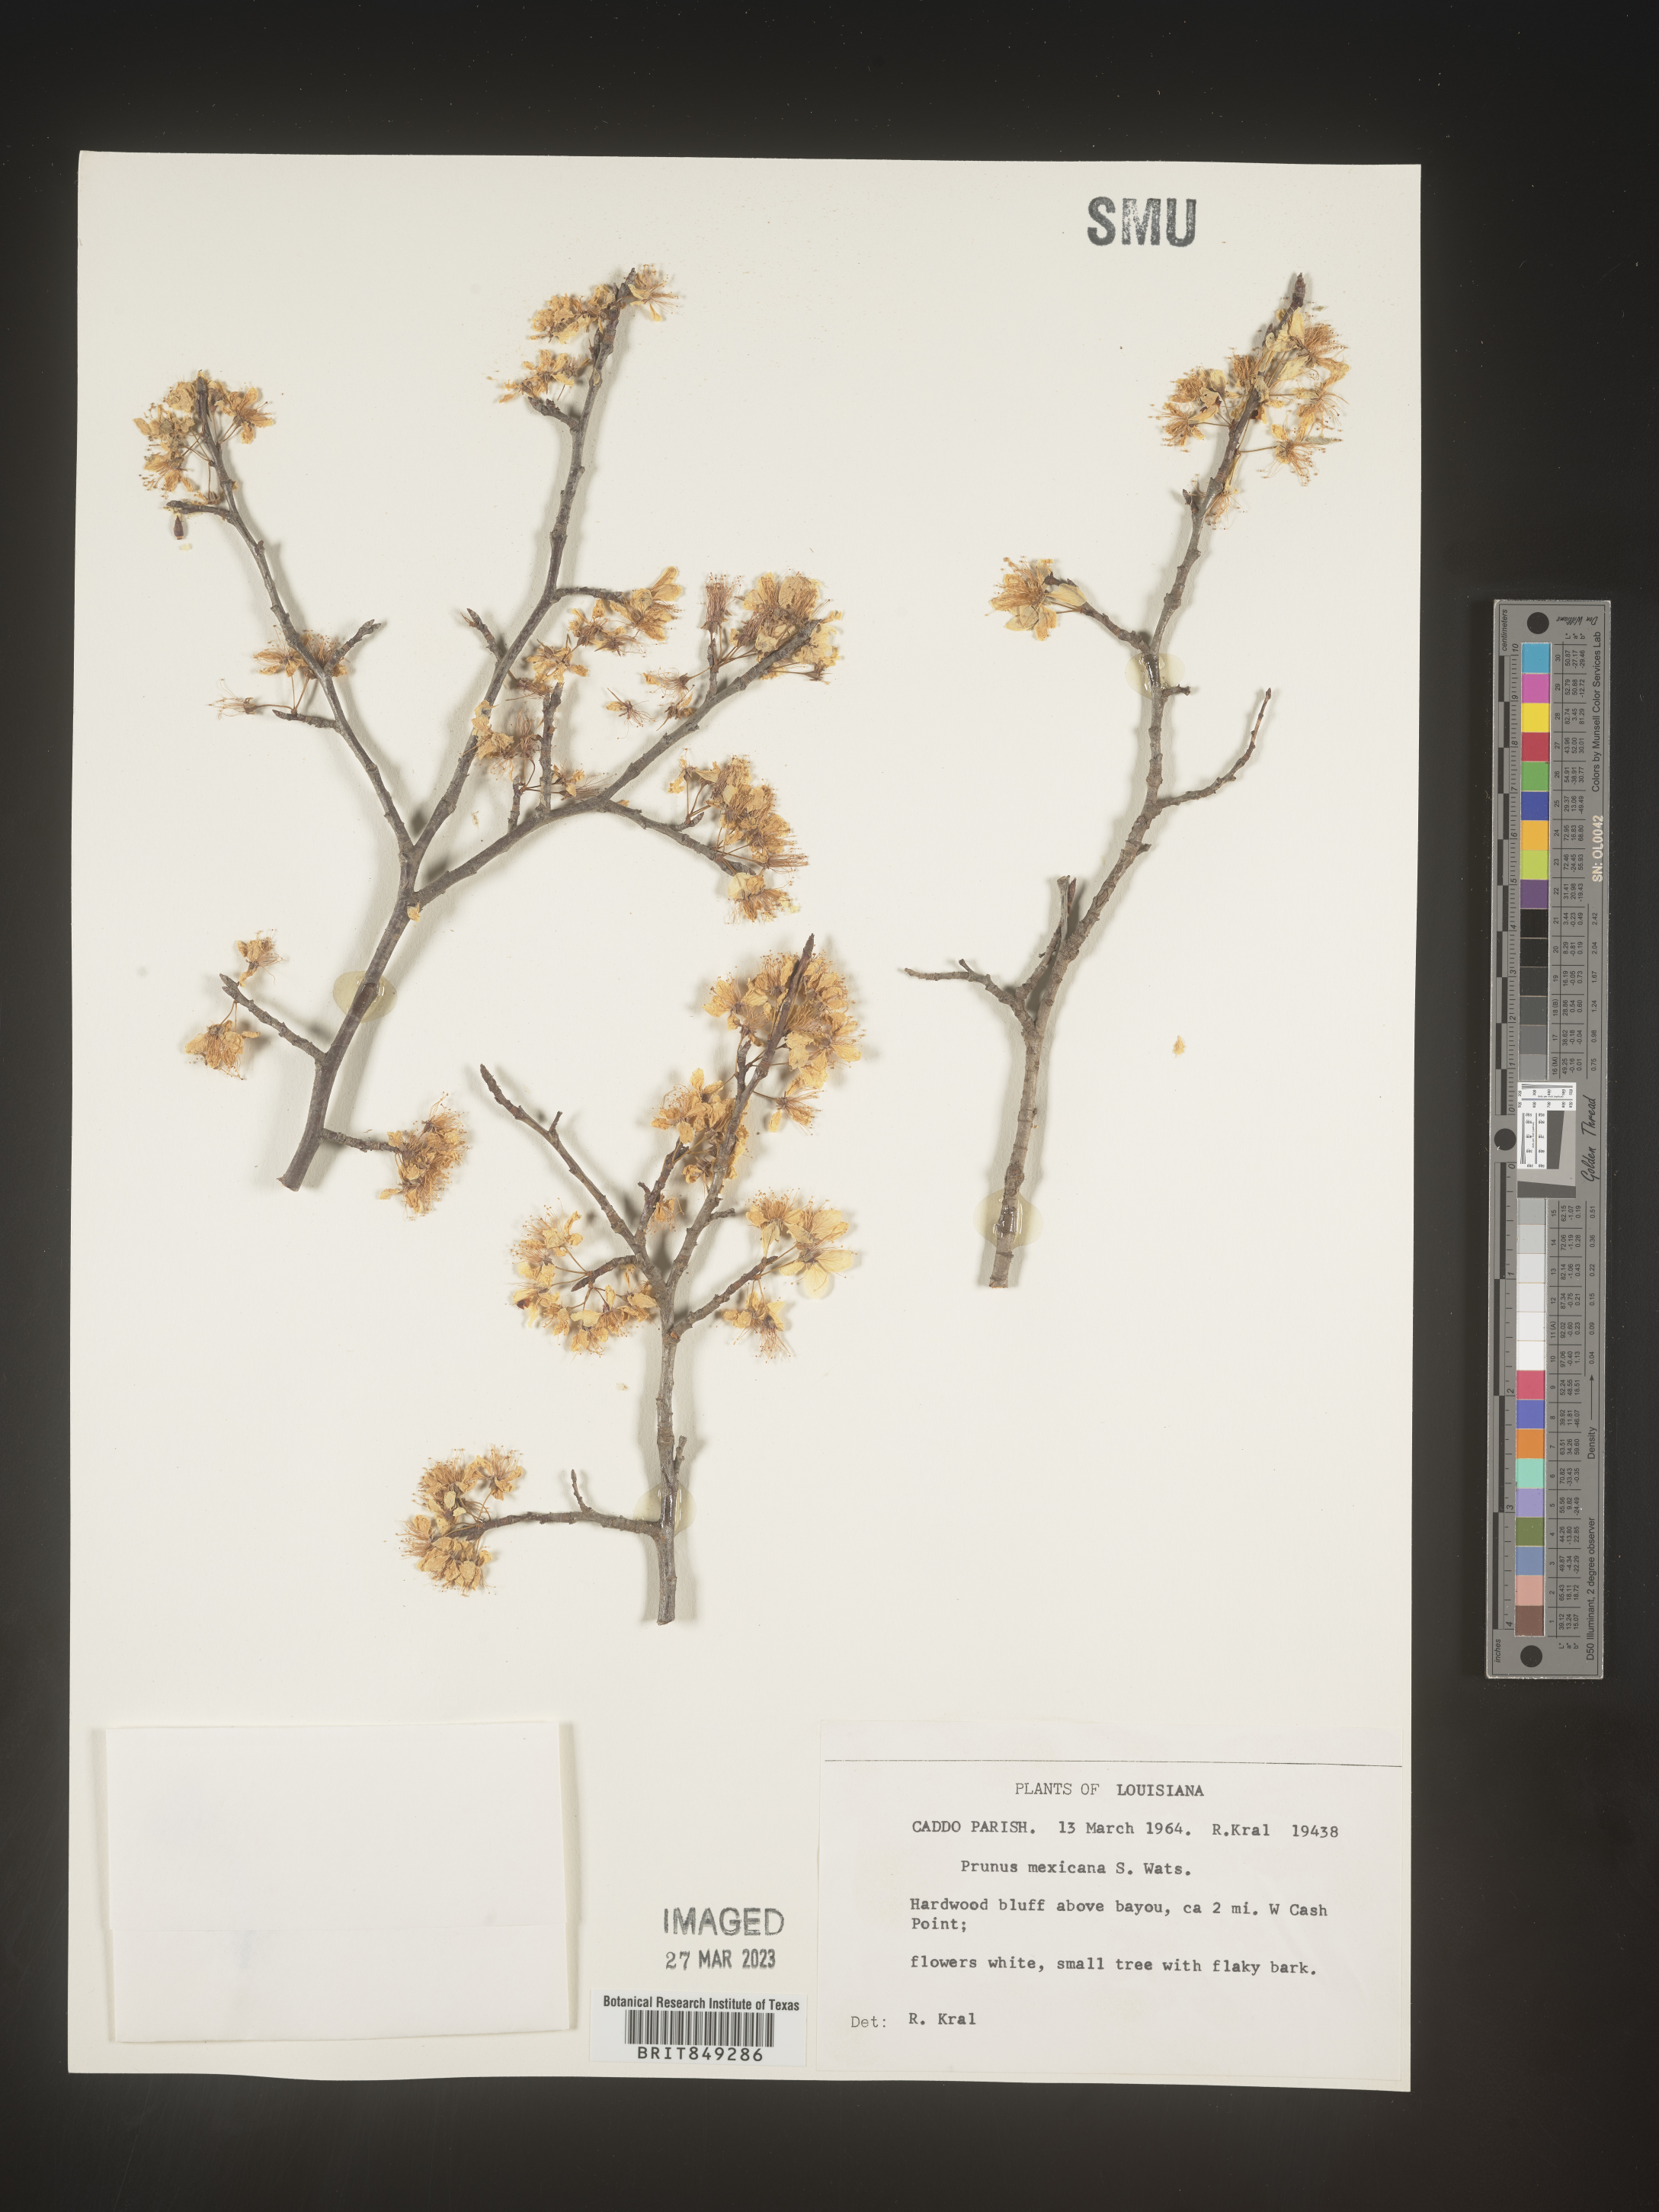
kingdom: Plantae
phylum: Tracheophyta
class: Magnoliopsida
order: Rosales
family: Rosaceae
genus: Prunus
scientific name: Prunus mexicana
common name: Mexican plum
